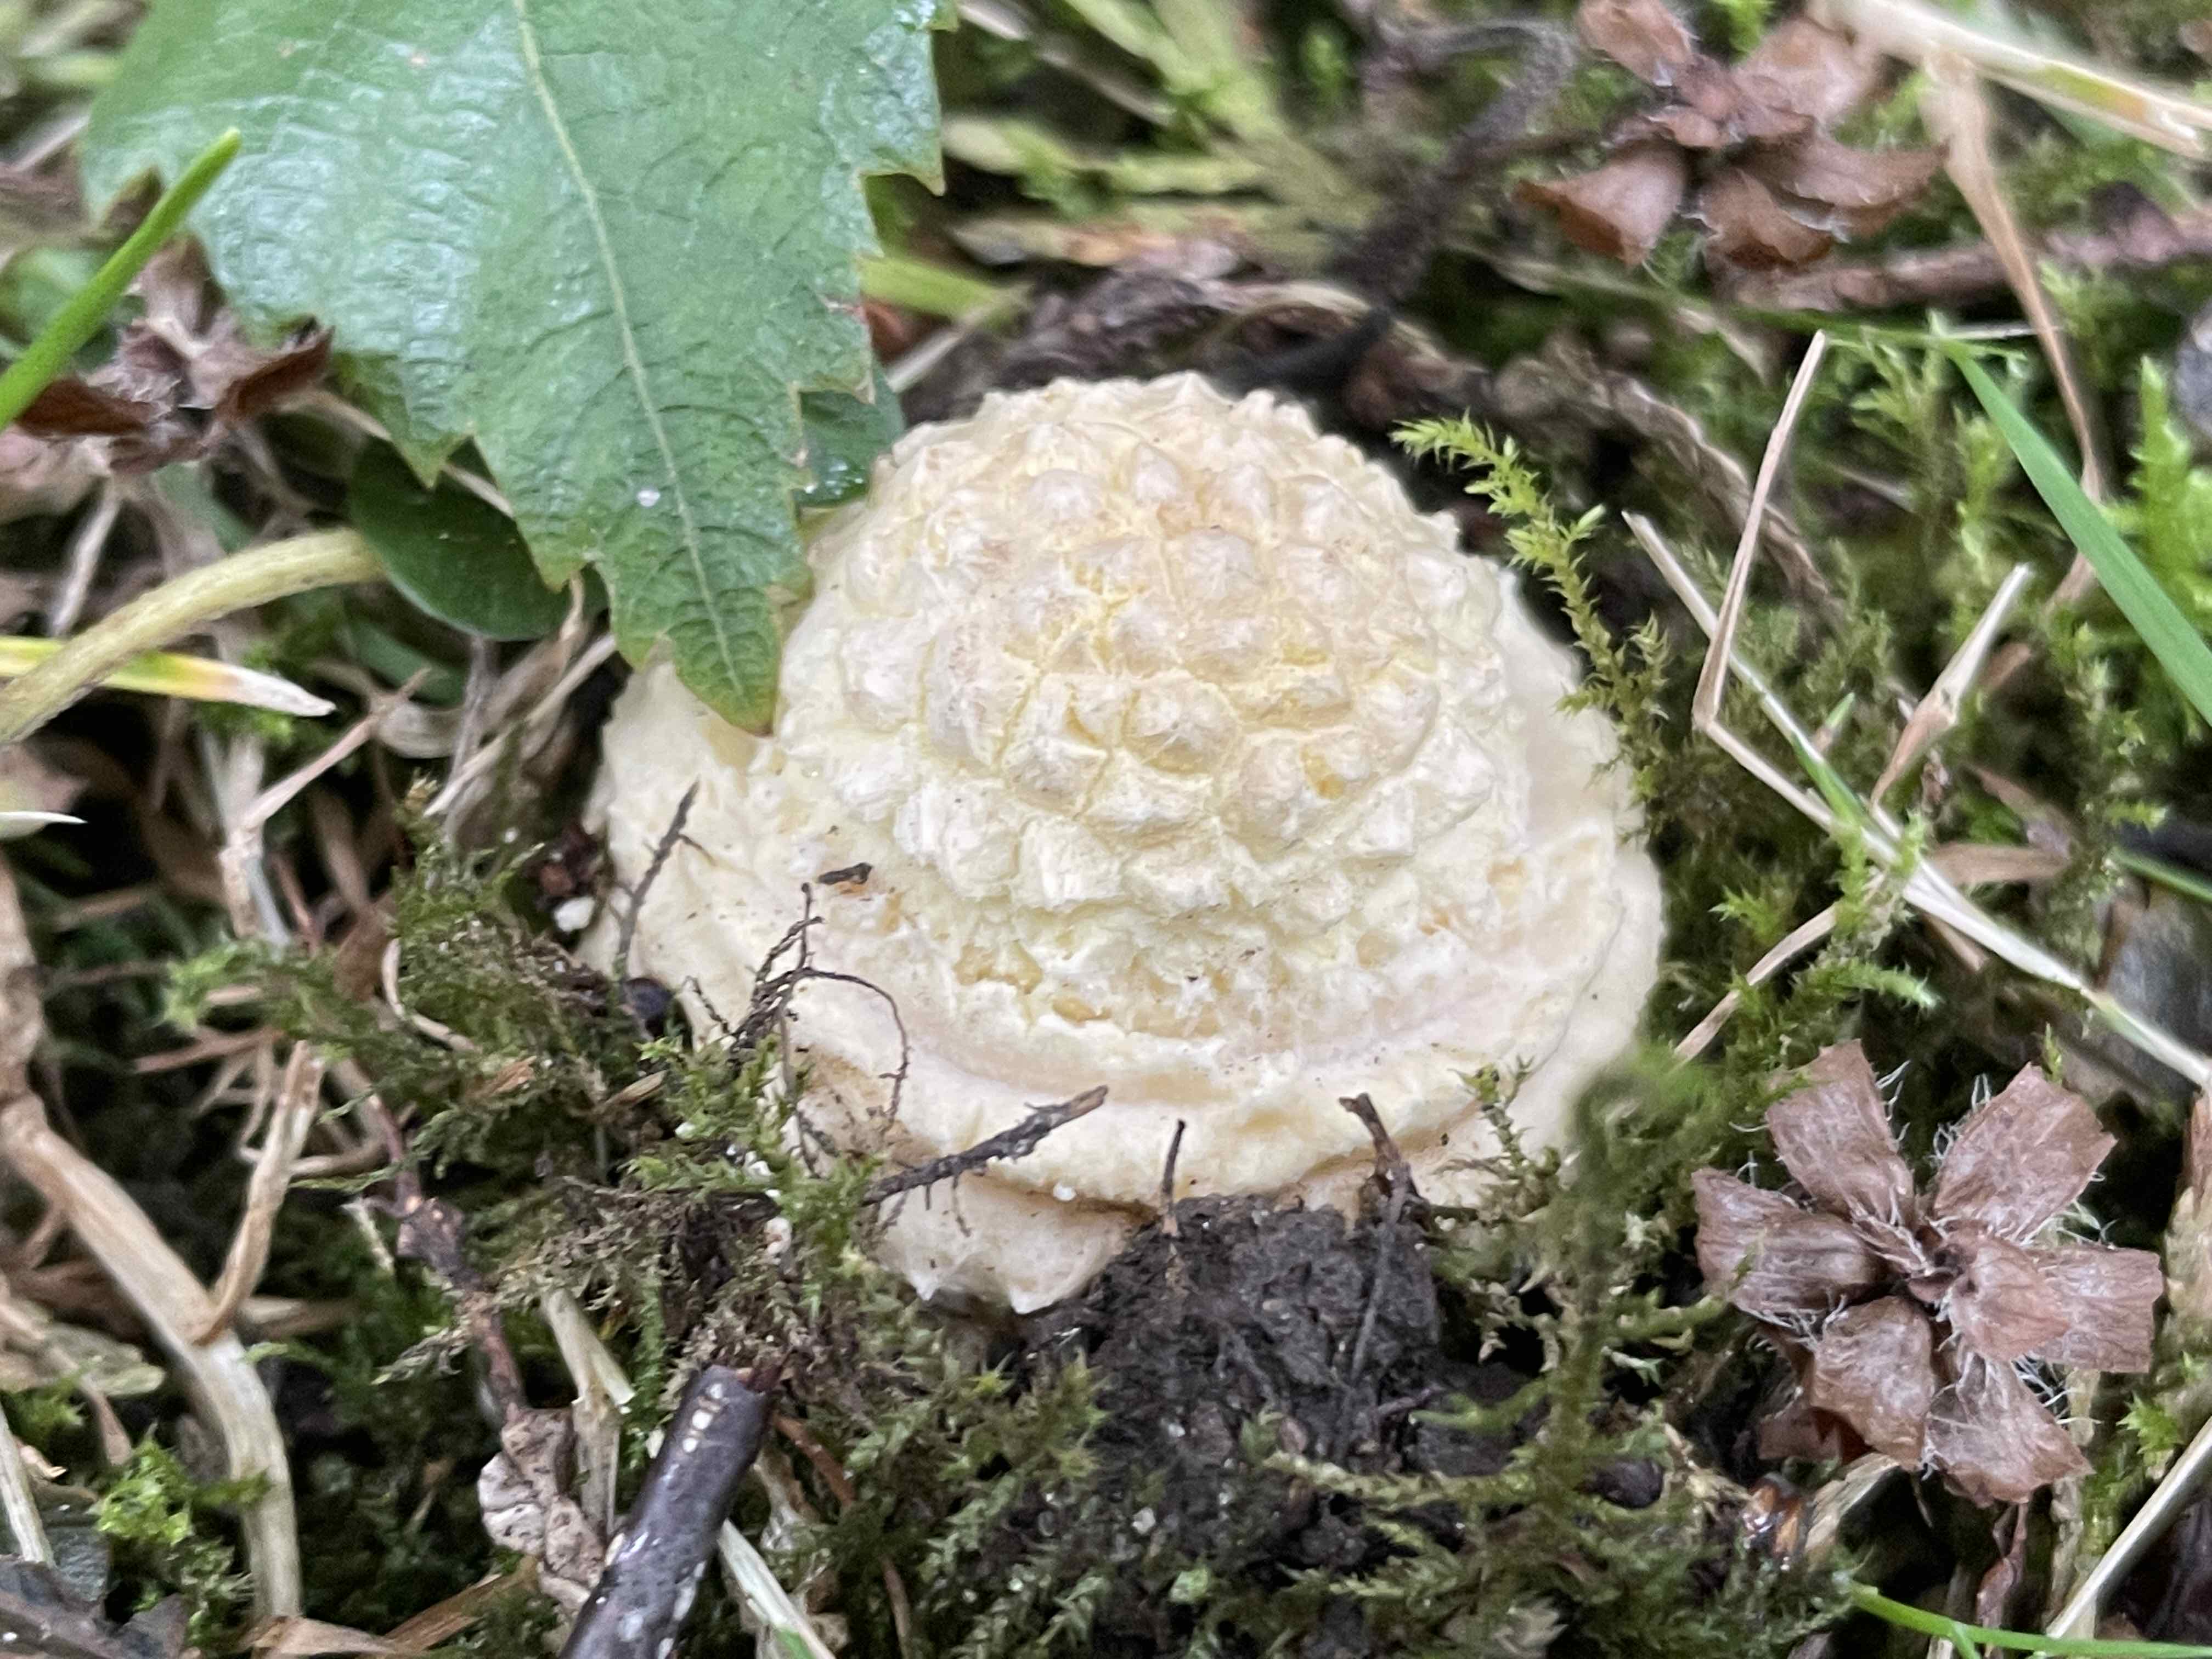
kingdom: Fungi
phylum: Basidiomycota
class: Agaricomycetes
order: Agaricales
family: Amanitaceae
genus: Amanita
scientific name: Amanita muscaria
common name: rød fluesvamp
